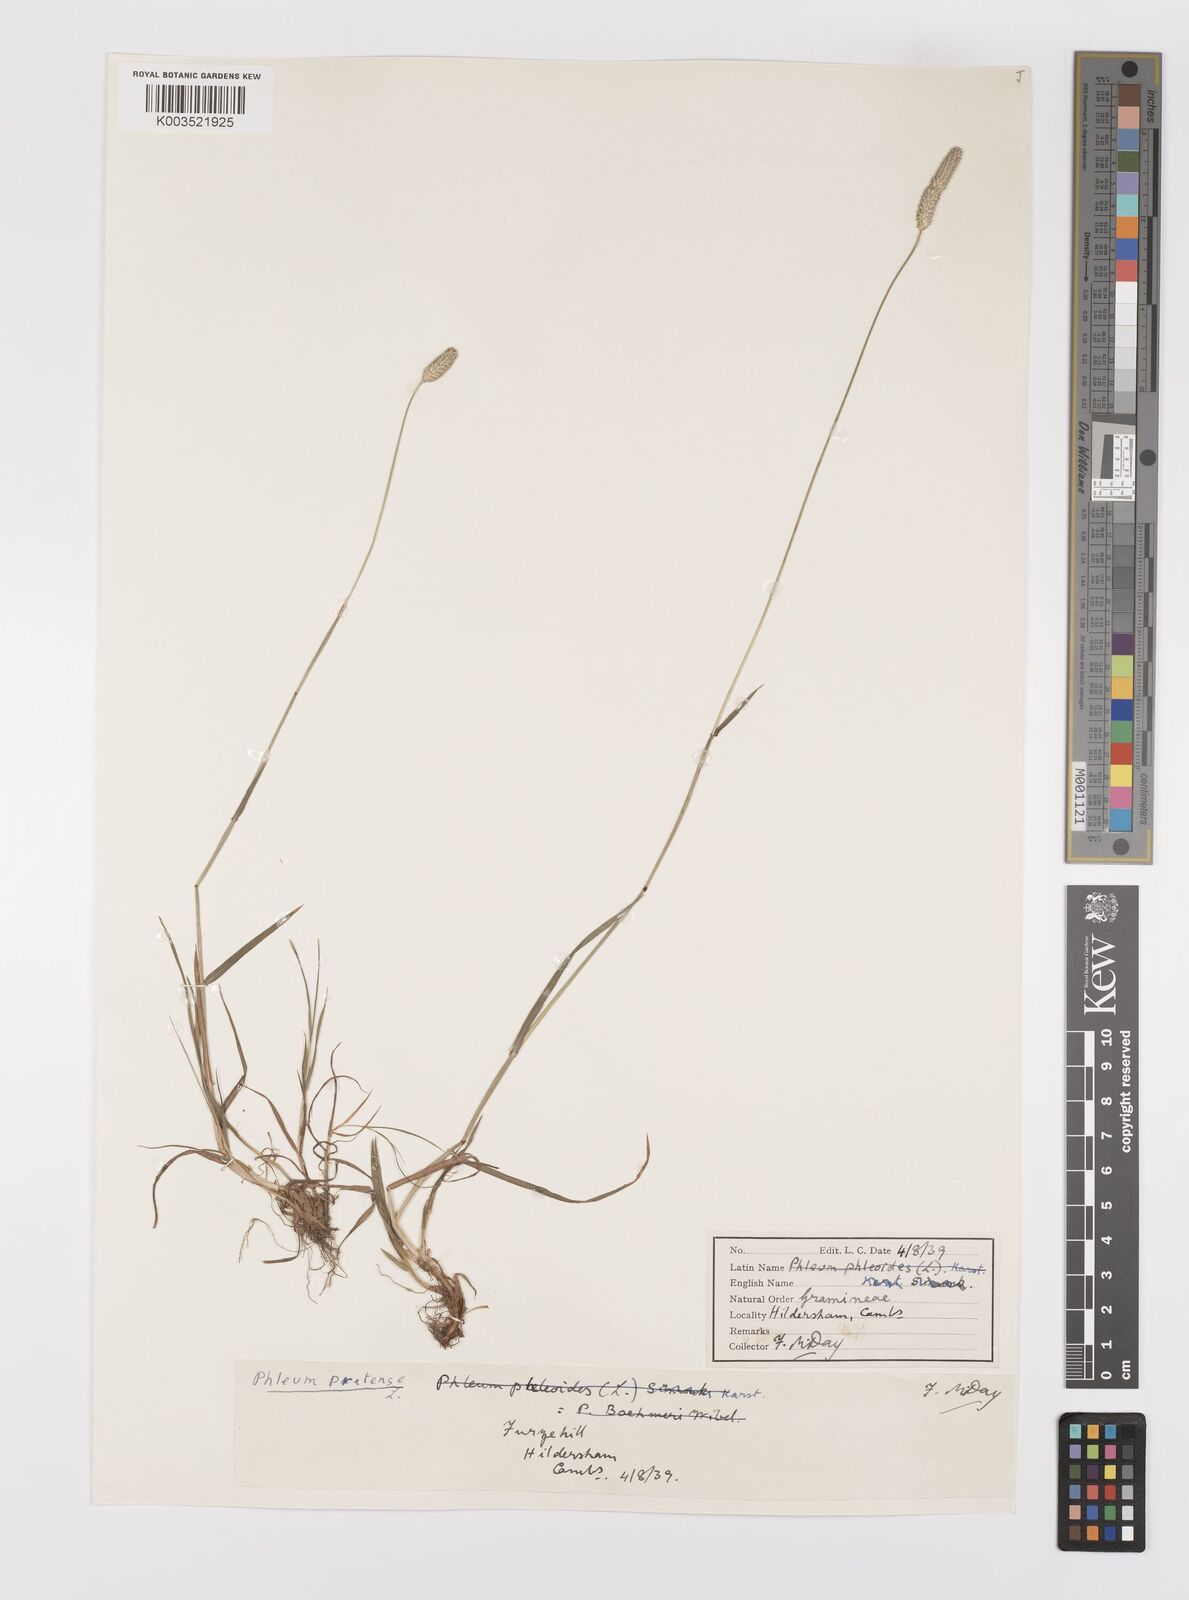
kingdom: Plantae
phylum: Tracheophyta
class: Liliopsida
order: Poales
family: Poaceae
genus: Phleum
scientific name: Phleum bertolonii
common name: Smaller cat's-tail
